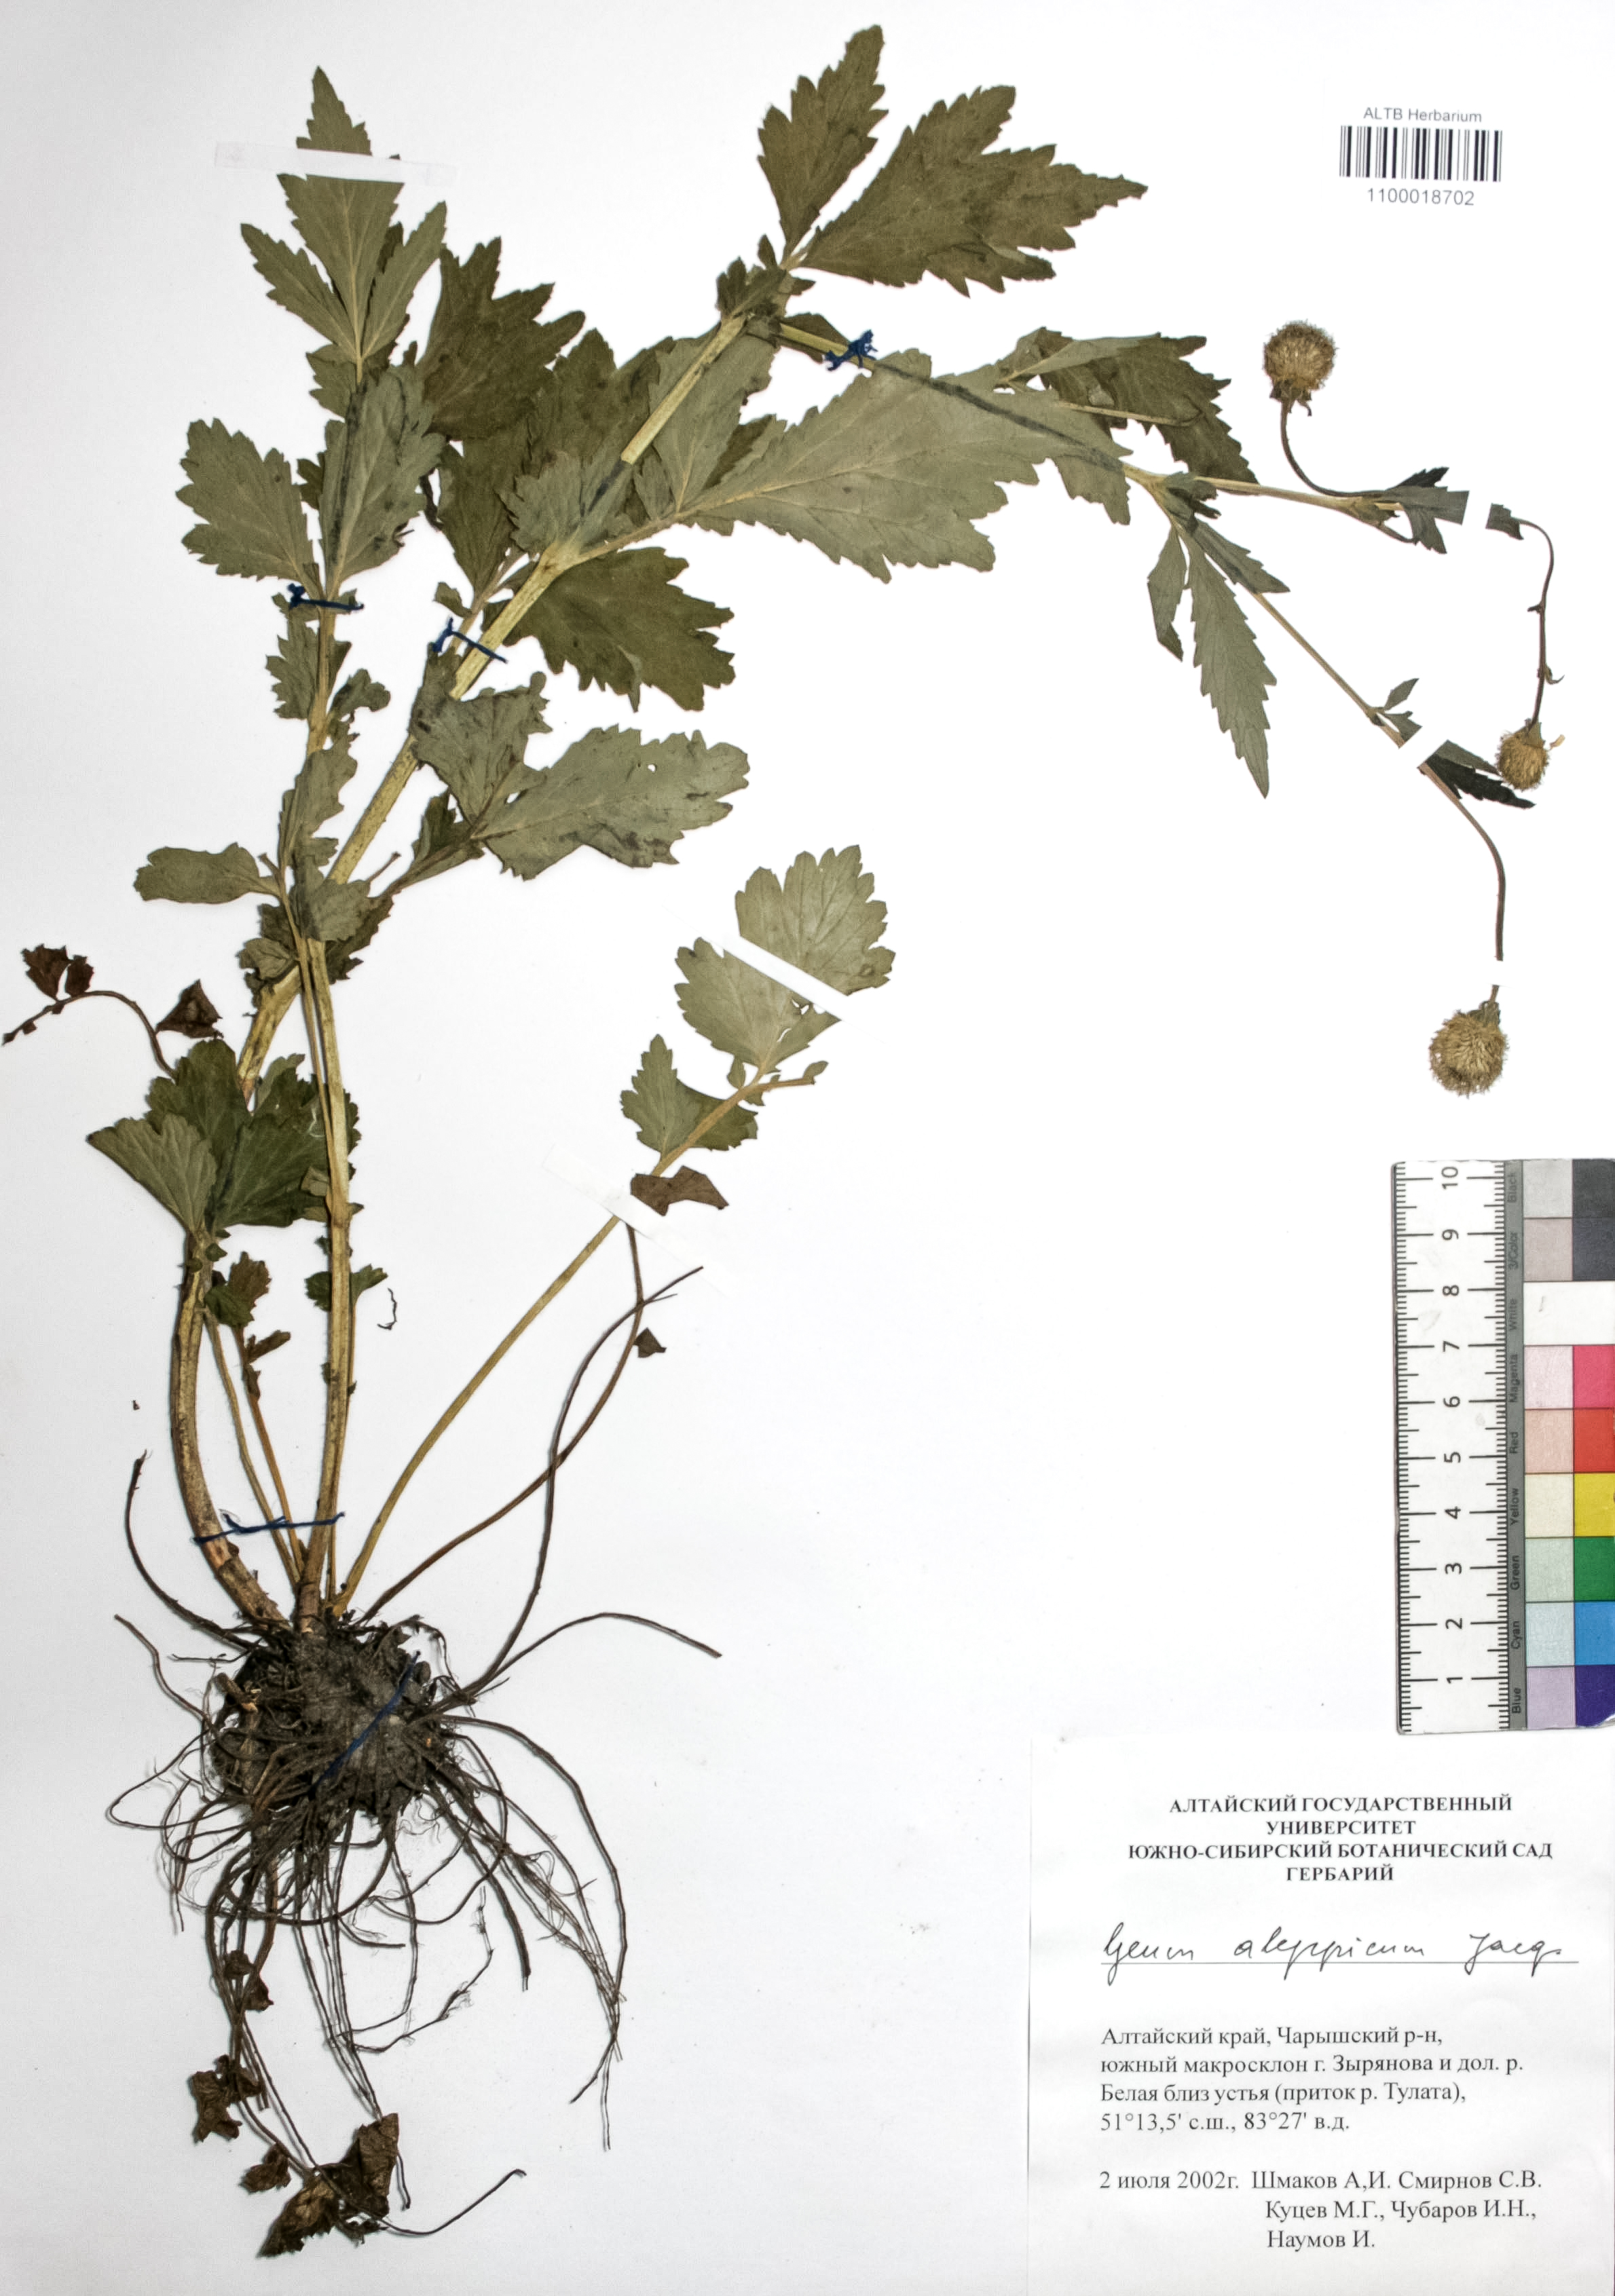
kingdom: Plantae
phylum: Tracheophyta
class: Magnoliopsida
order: Rosales
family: Rosaceae
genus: Geum
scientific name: Geum aleppicum
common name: Yellow avens
